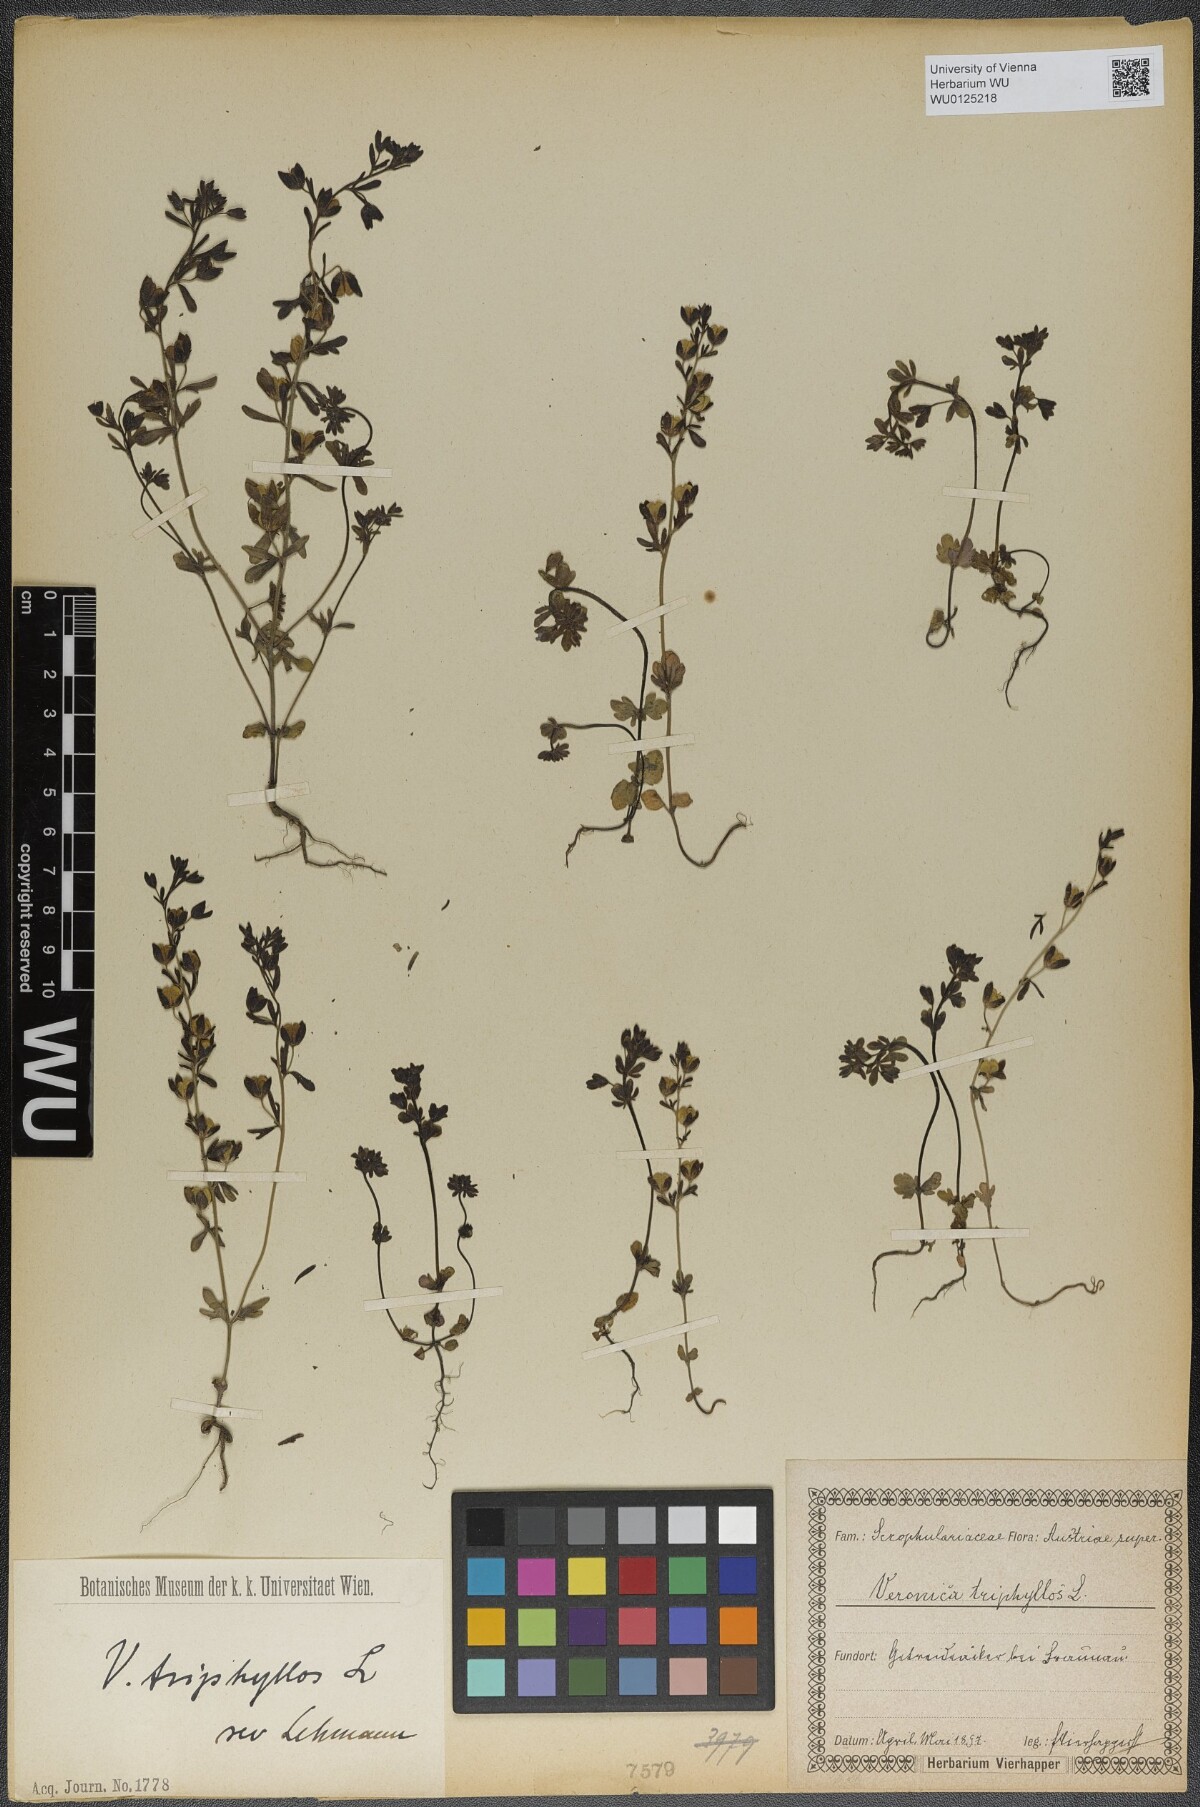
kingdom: Plantae
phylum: Tracheophyta
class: Magnoliopsida
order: Lamiales
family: Plantaginaceae
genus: Veronica
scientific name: Veronica triphyllos
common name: Fingered speedwell
